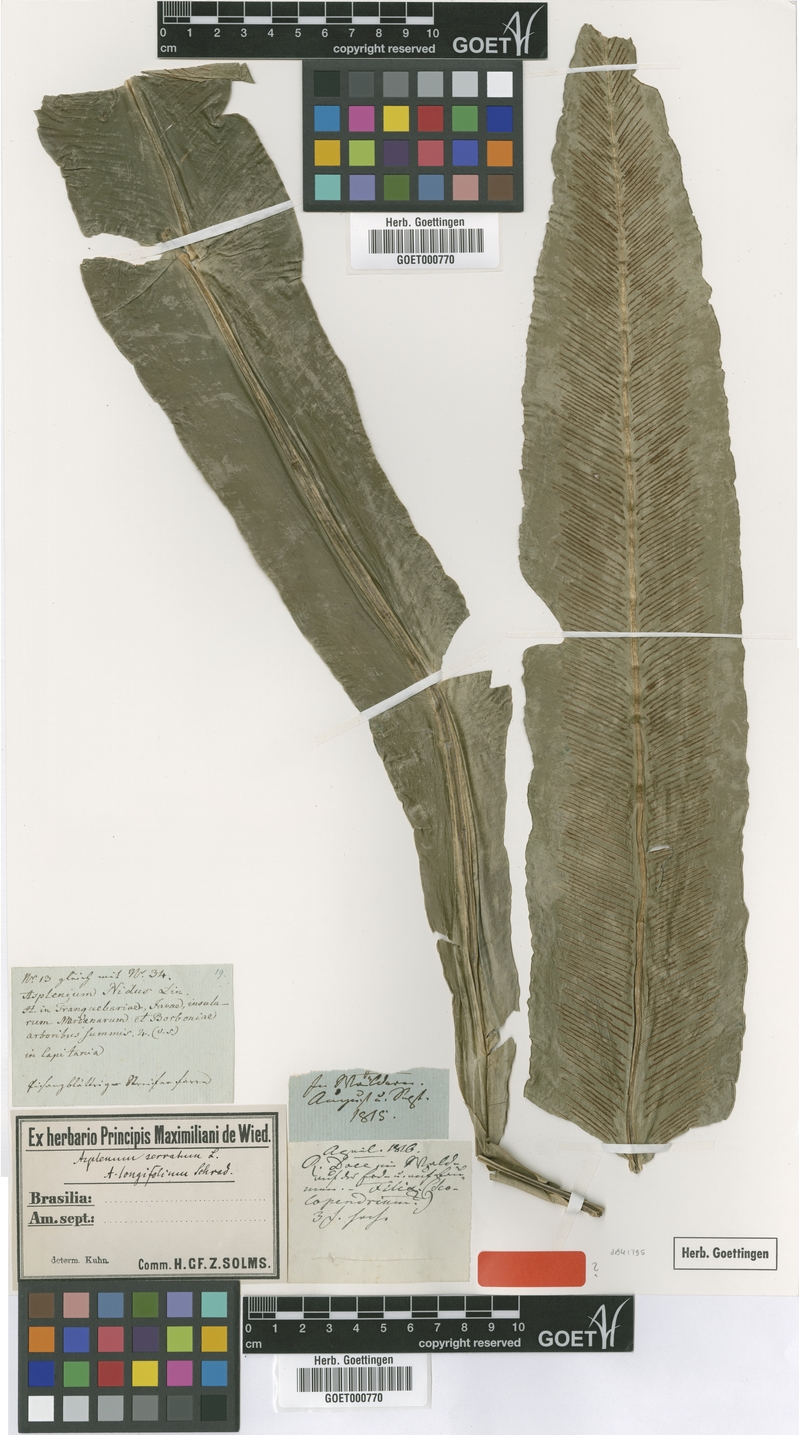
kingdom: Plantae
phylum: Tracheophyta
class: Polypodiopsida
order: Polypodiales
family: Aspleniaceae
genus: Asplenium
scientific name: Asplenium serratum
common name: Wild birdnest fern
